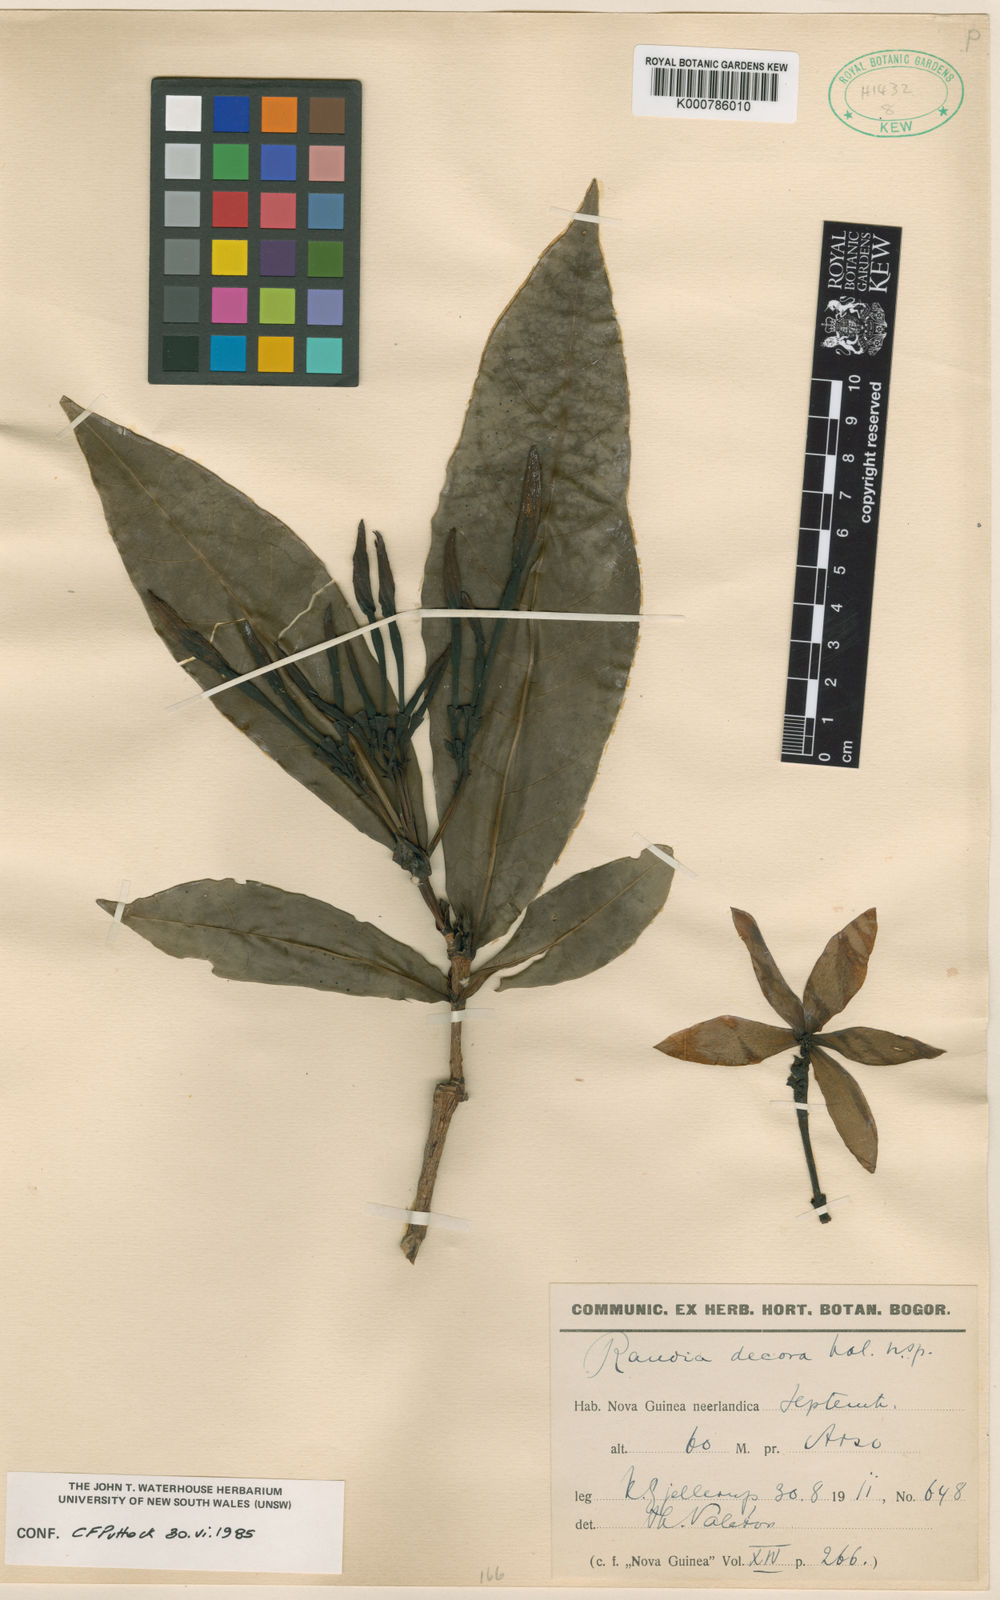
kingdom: Plantae
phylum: Tracheophyta
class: Magnoliopsida
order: Gentianales
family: Rubiaceae
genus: Atractocarpus
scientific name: Atractocarpus decorus
